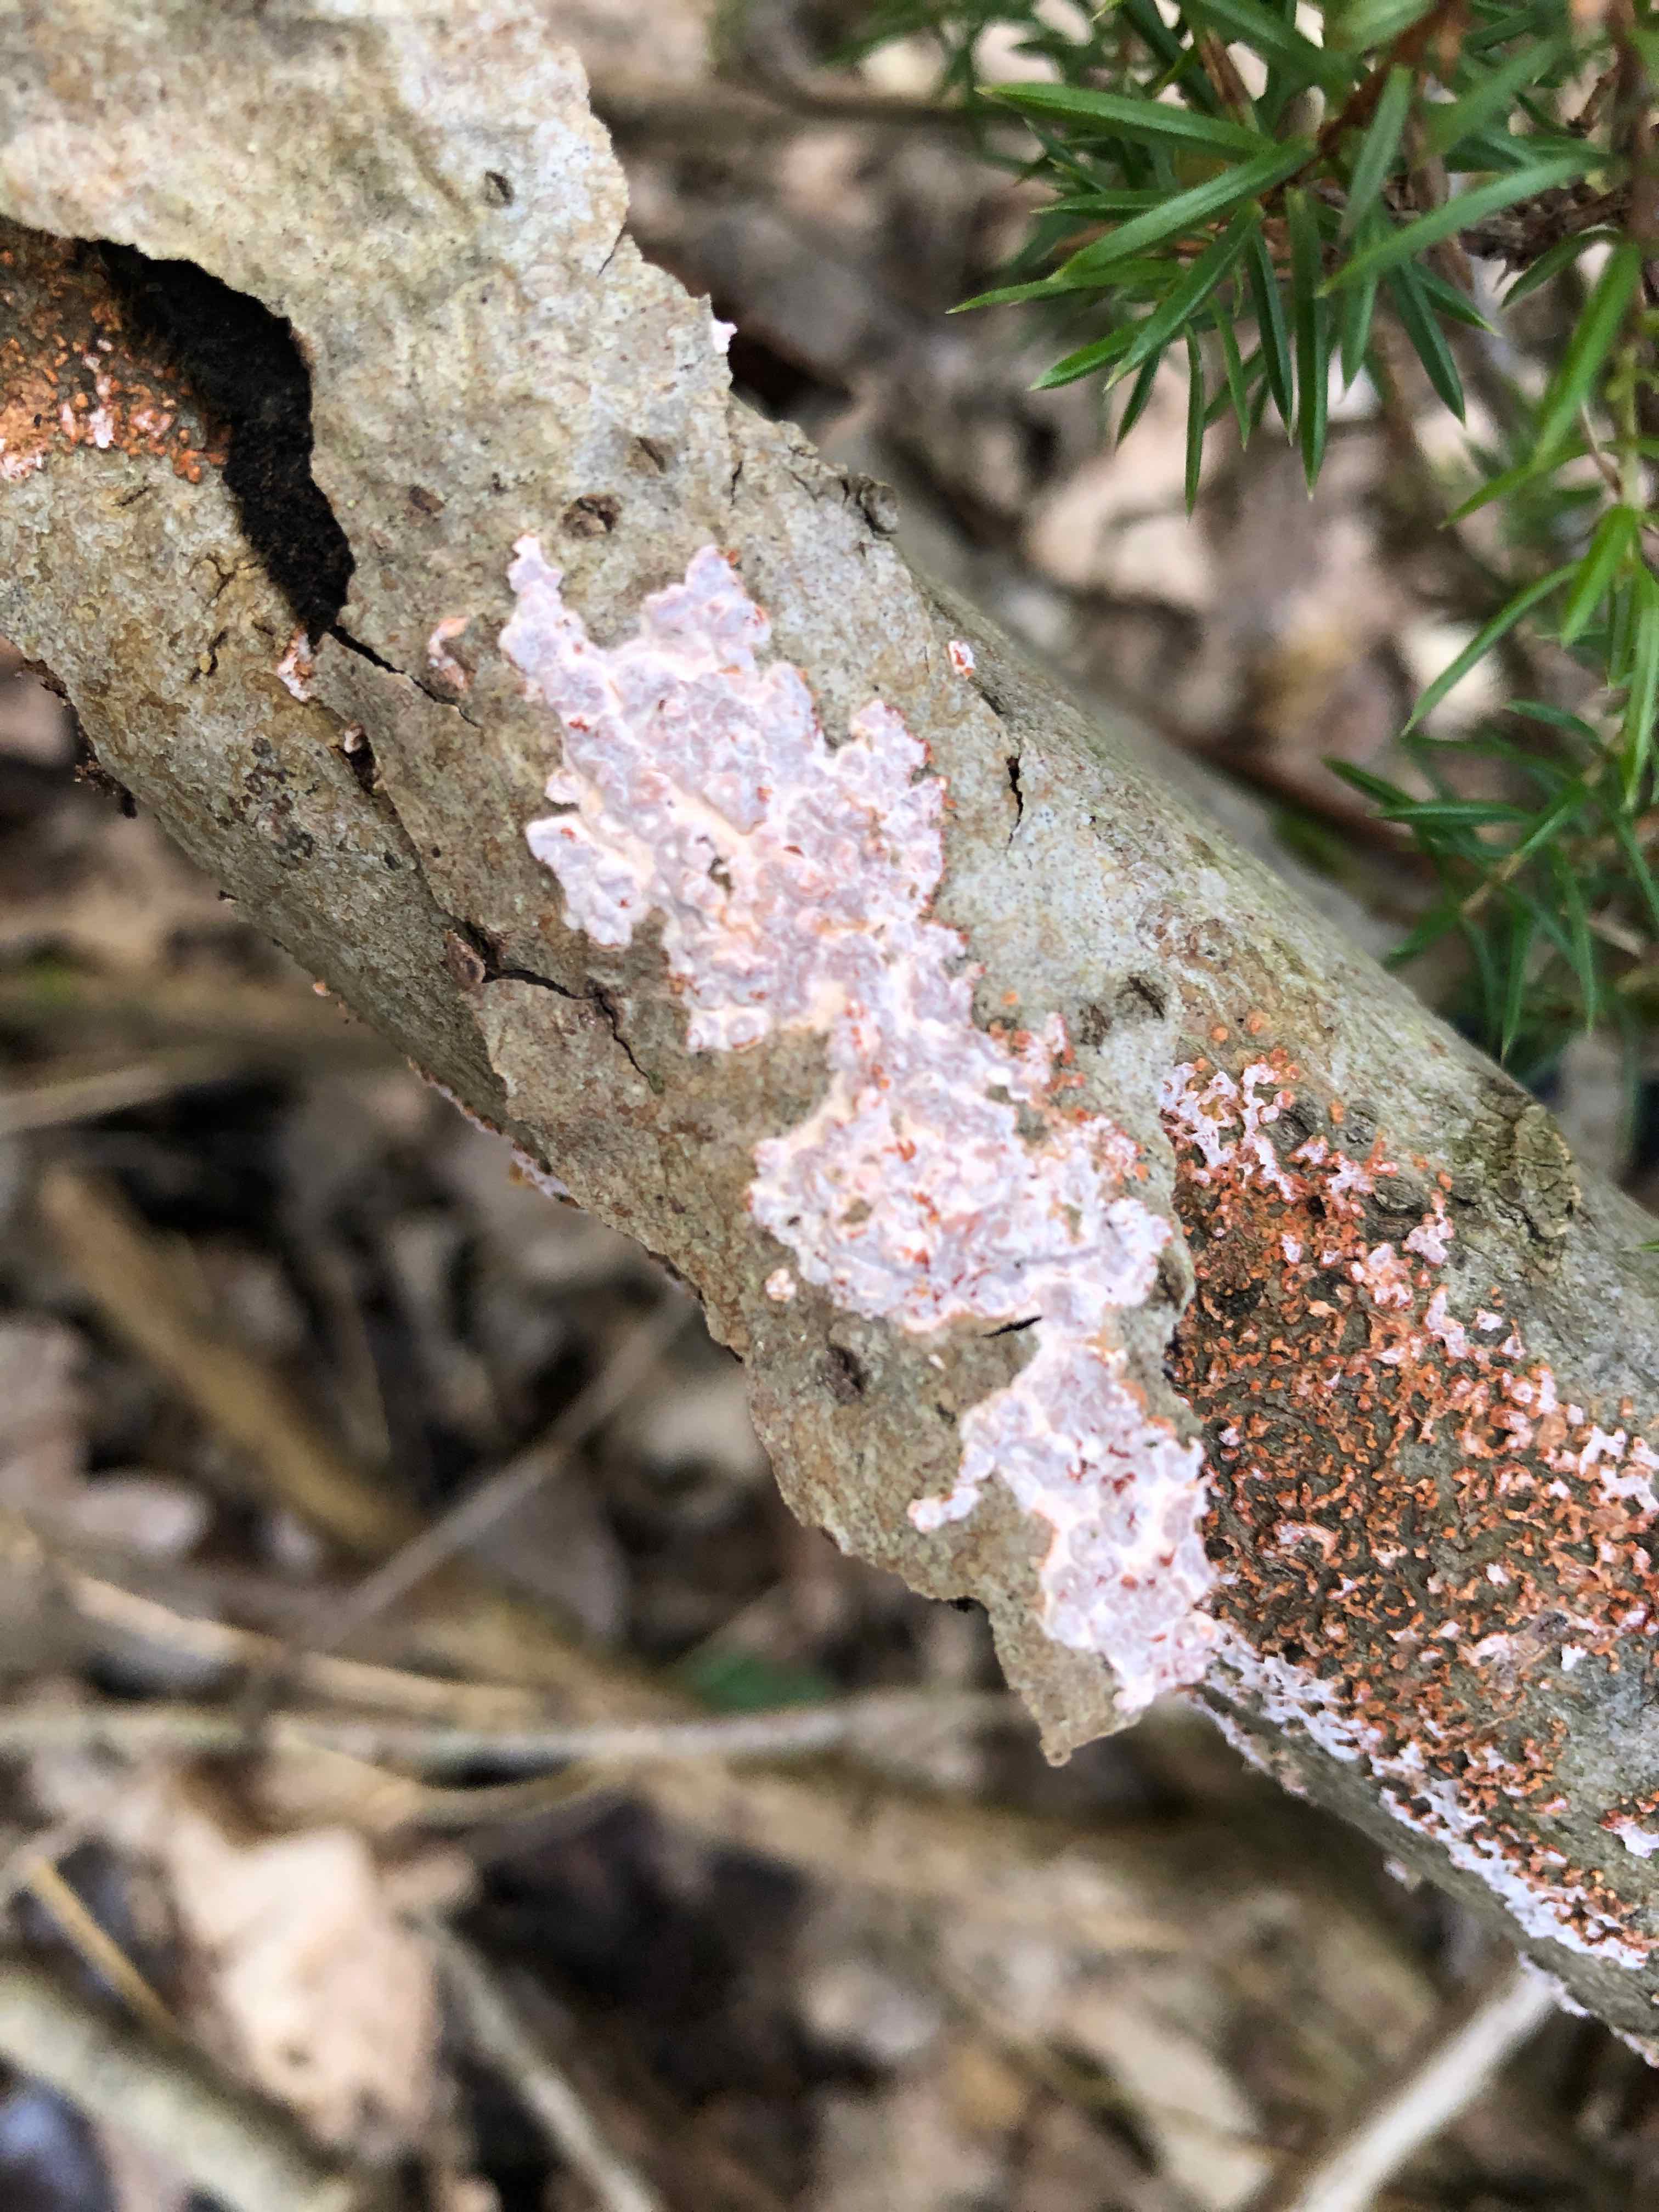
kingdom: Fungi
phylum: Basidiomycota
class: Agaricomycetes
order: Russulales
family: Peniophoraceae
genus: Peniophora
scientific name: Peniophora polygonia
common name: polygon-voksskind
